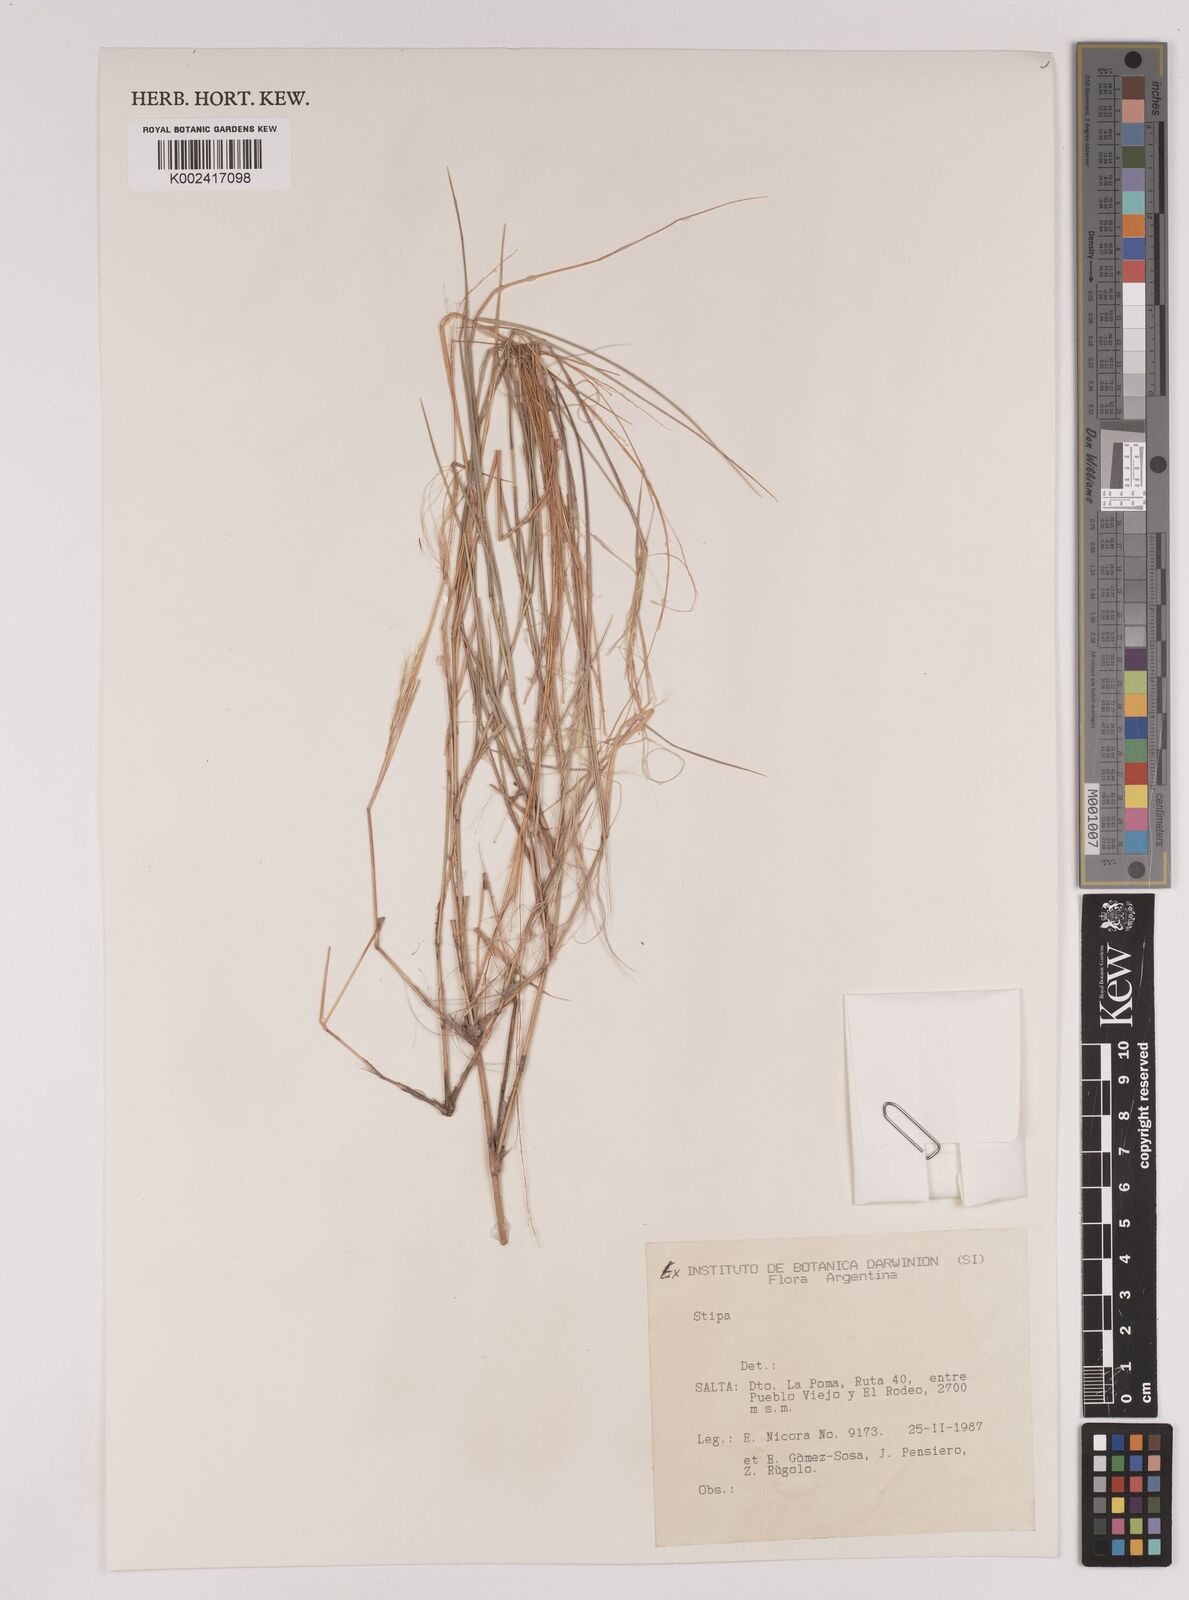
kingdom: Plantae
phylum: Tracheophyta
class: Liliopsida
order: Poales
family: Poaceae
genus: Stipa
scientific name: Stipa
